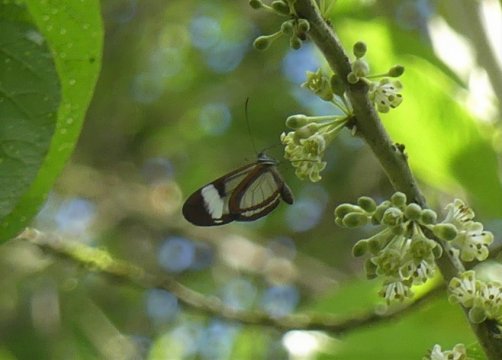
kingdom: Animalia
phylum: Arthropoda
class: Insecta
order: Lepidoptera
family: Nymphalidae
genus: Oleria
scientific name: Oleria paula
